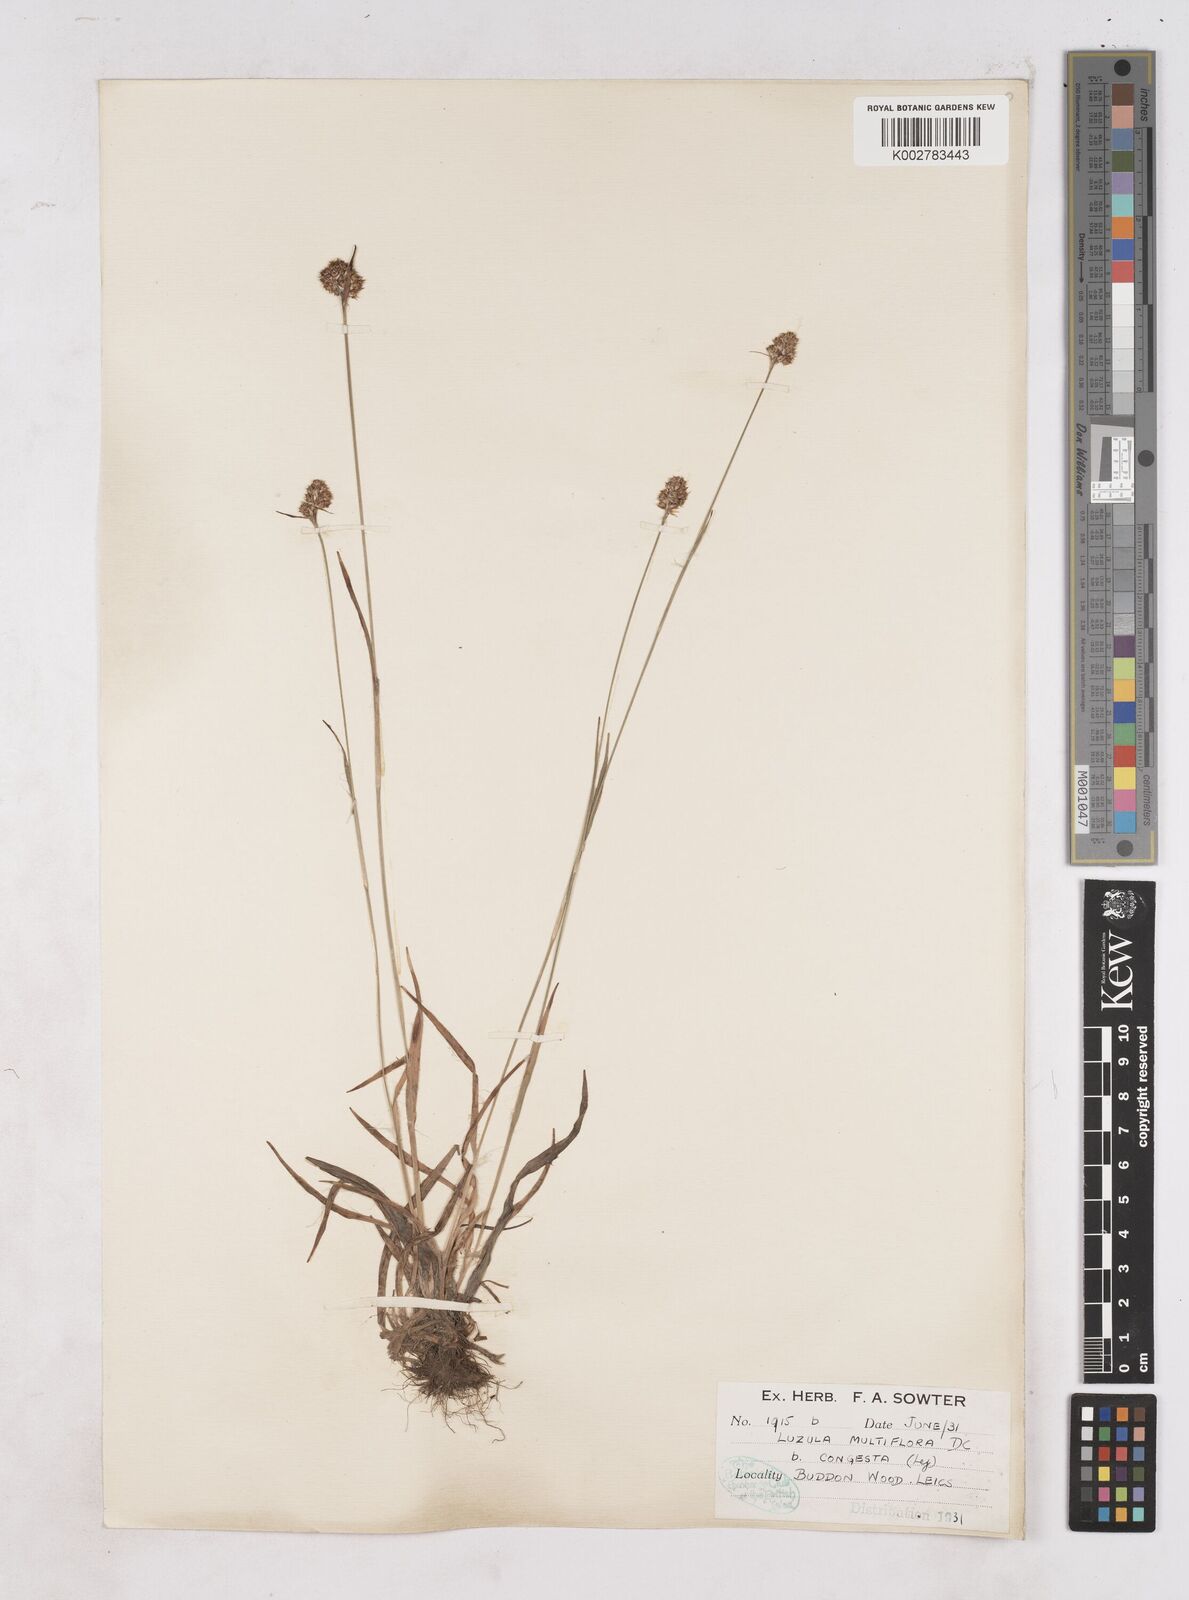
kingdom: Plantae
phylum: Tracheophyta
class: Liliopsida
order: Poales
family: Juncaceae
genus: Luzula
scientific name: Luzula campestris
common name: Field wood-rush
